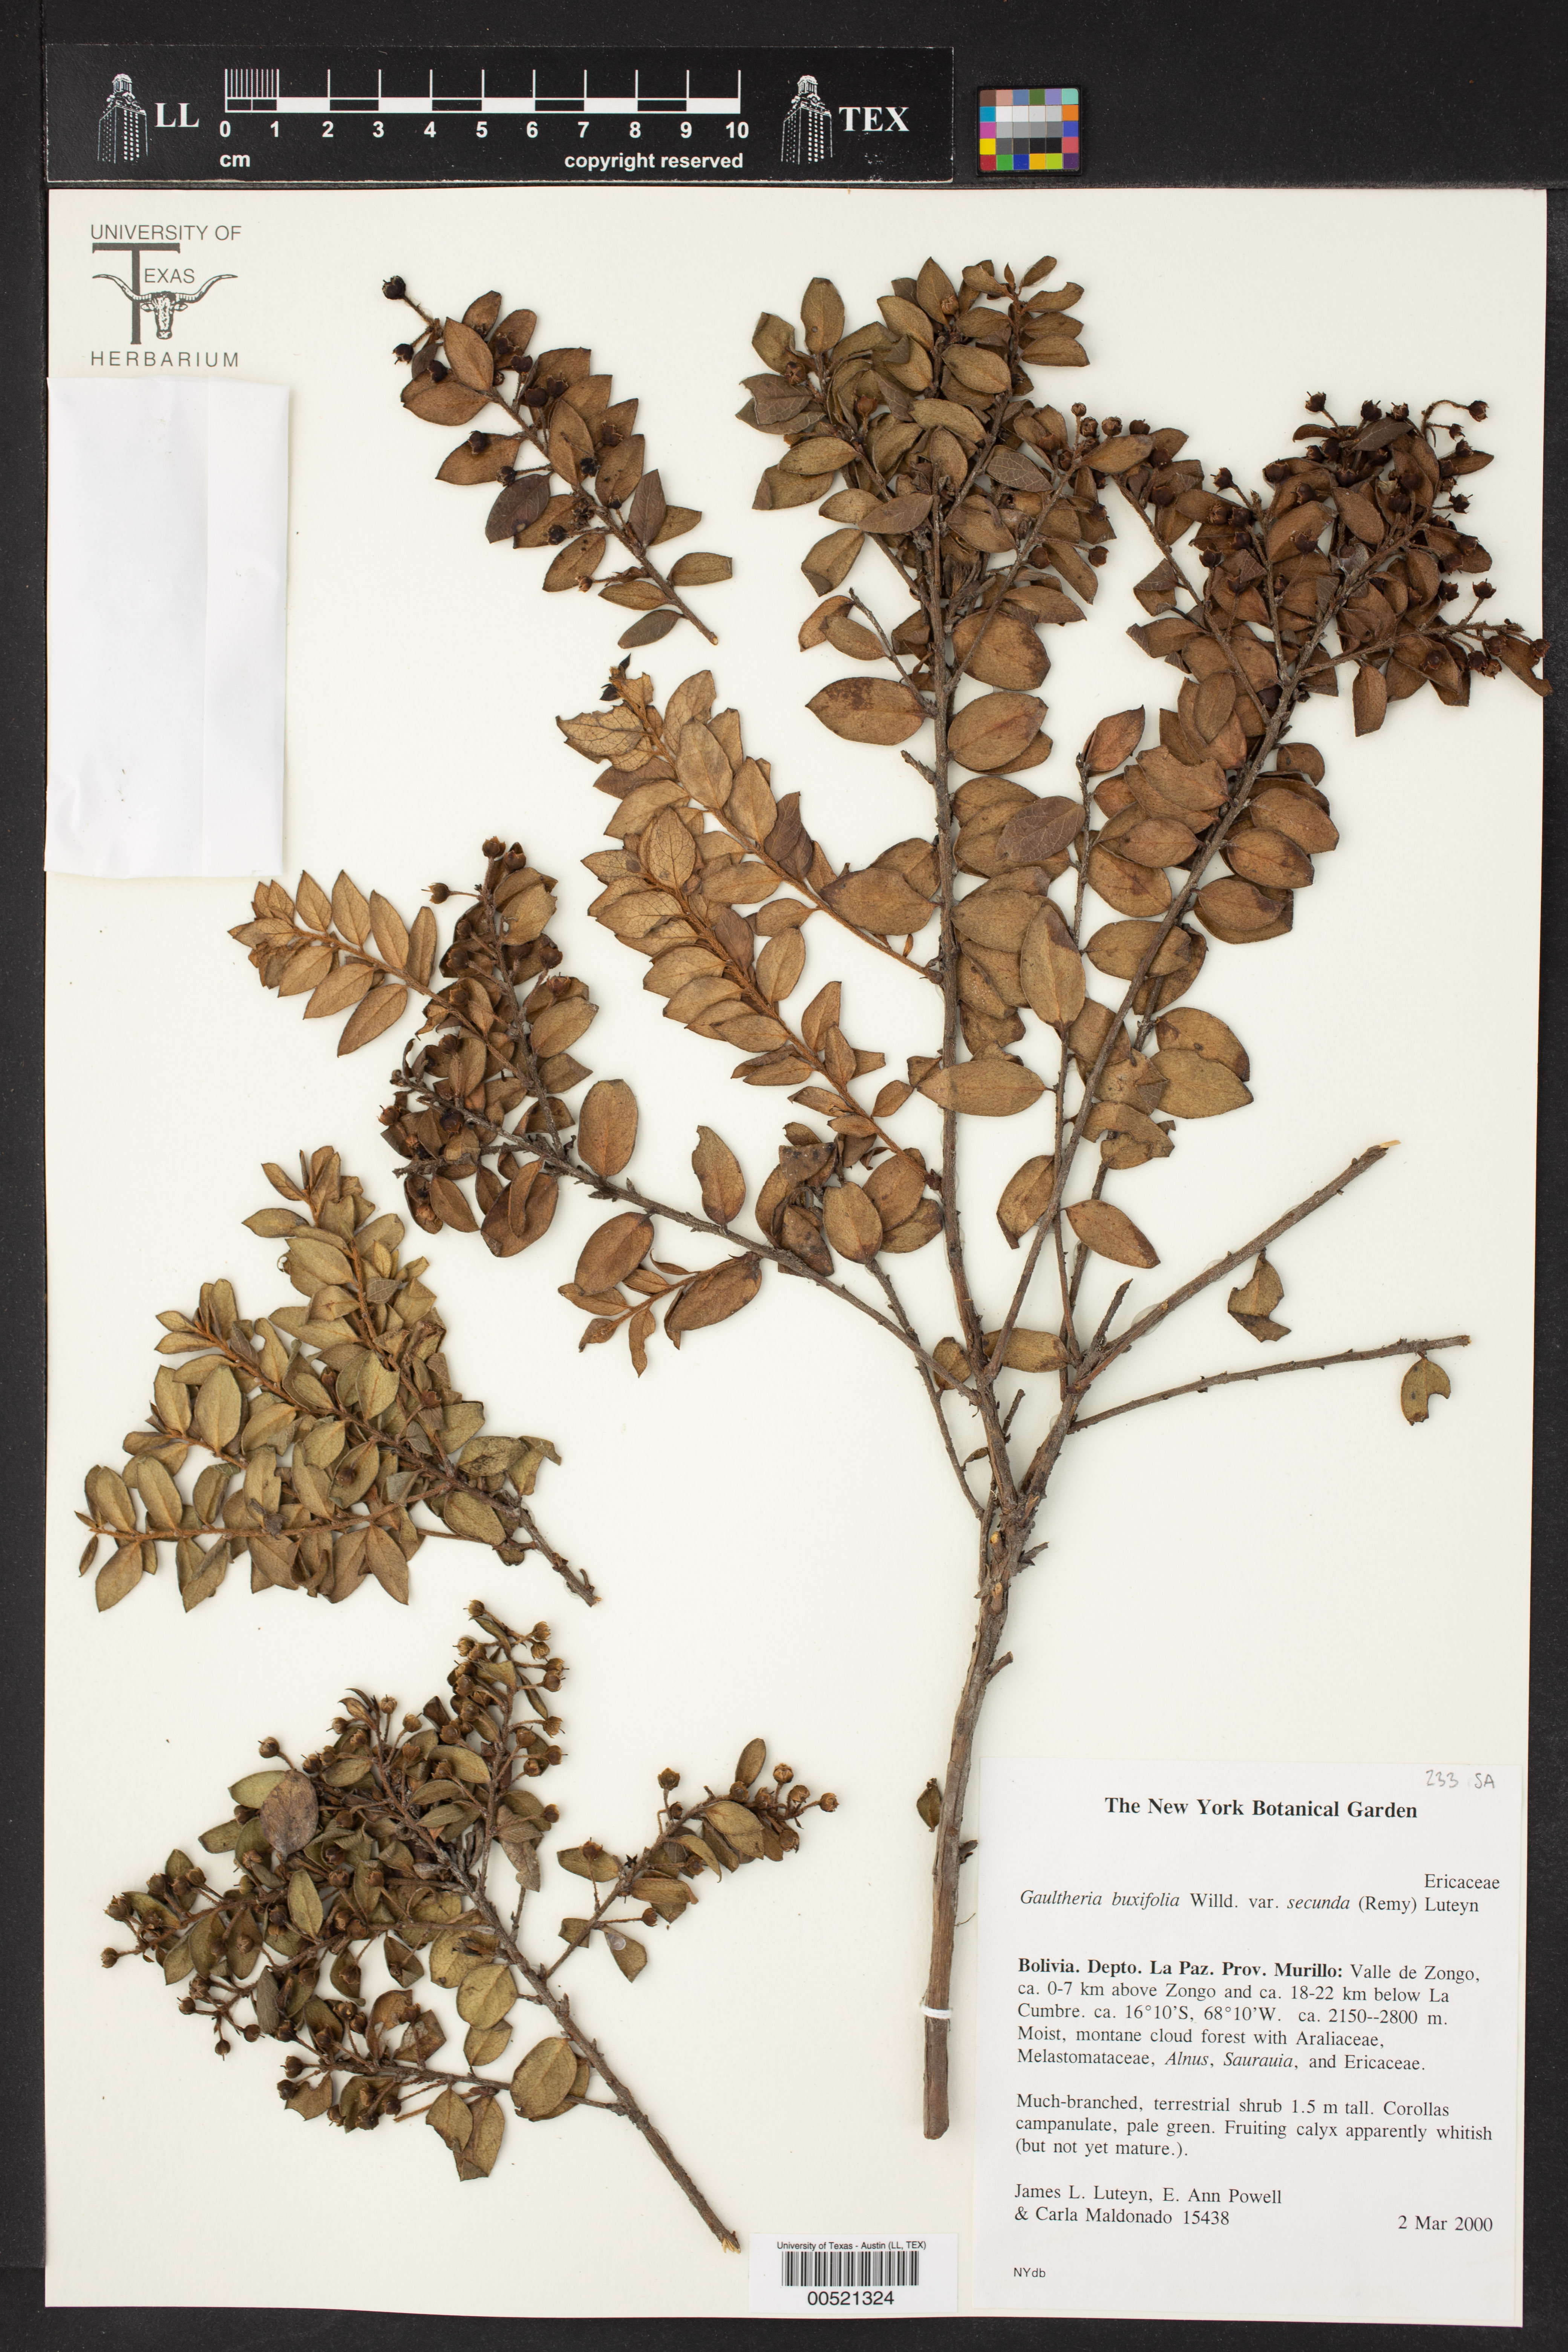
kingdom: Plantae
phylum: Tracheophyta
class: Magnoliopsida
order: Ericales
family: Ericaceae
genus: Gaultheria
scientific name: Gaultheria buxifolia
